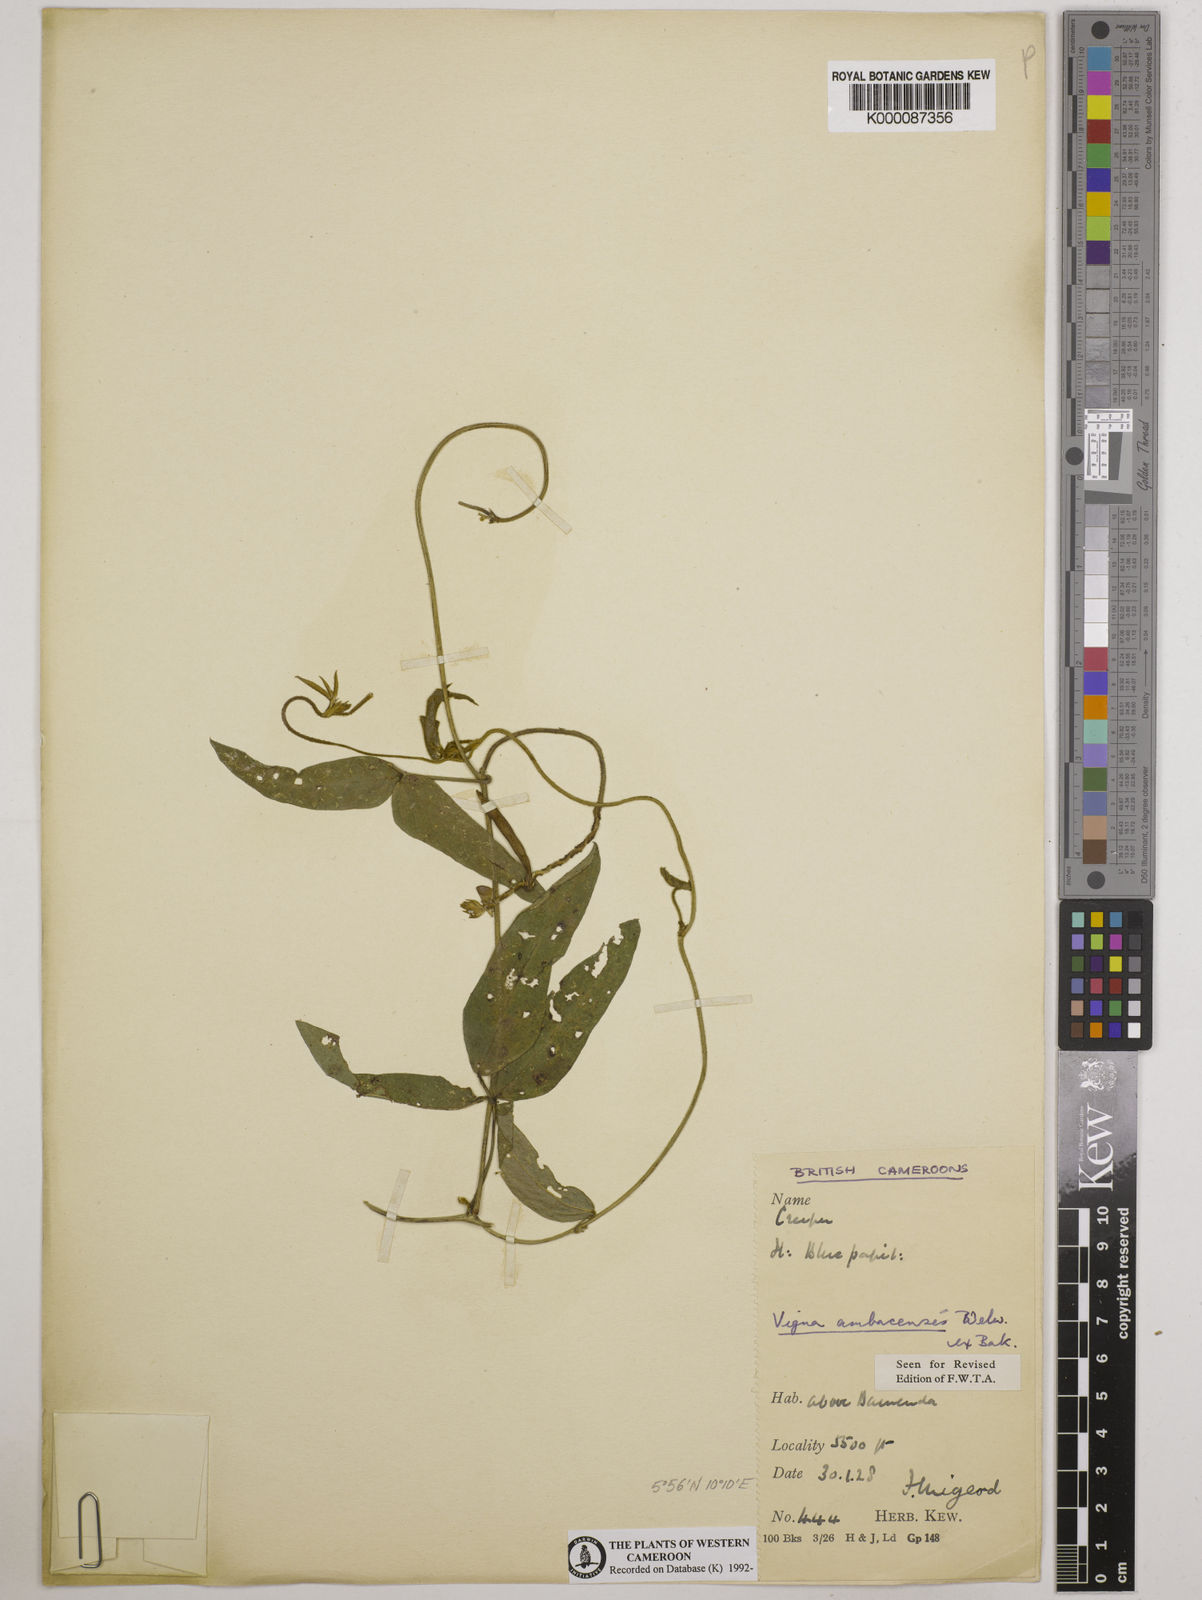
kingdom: Plantae
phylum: Tracheophyta
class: Magnoliopsida
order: Fabales
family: Fabaceae
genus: Vigna
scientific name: Vigna ambacensis
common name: Tsarkiyan zomo
